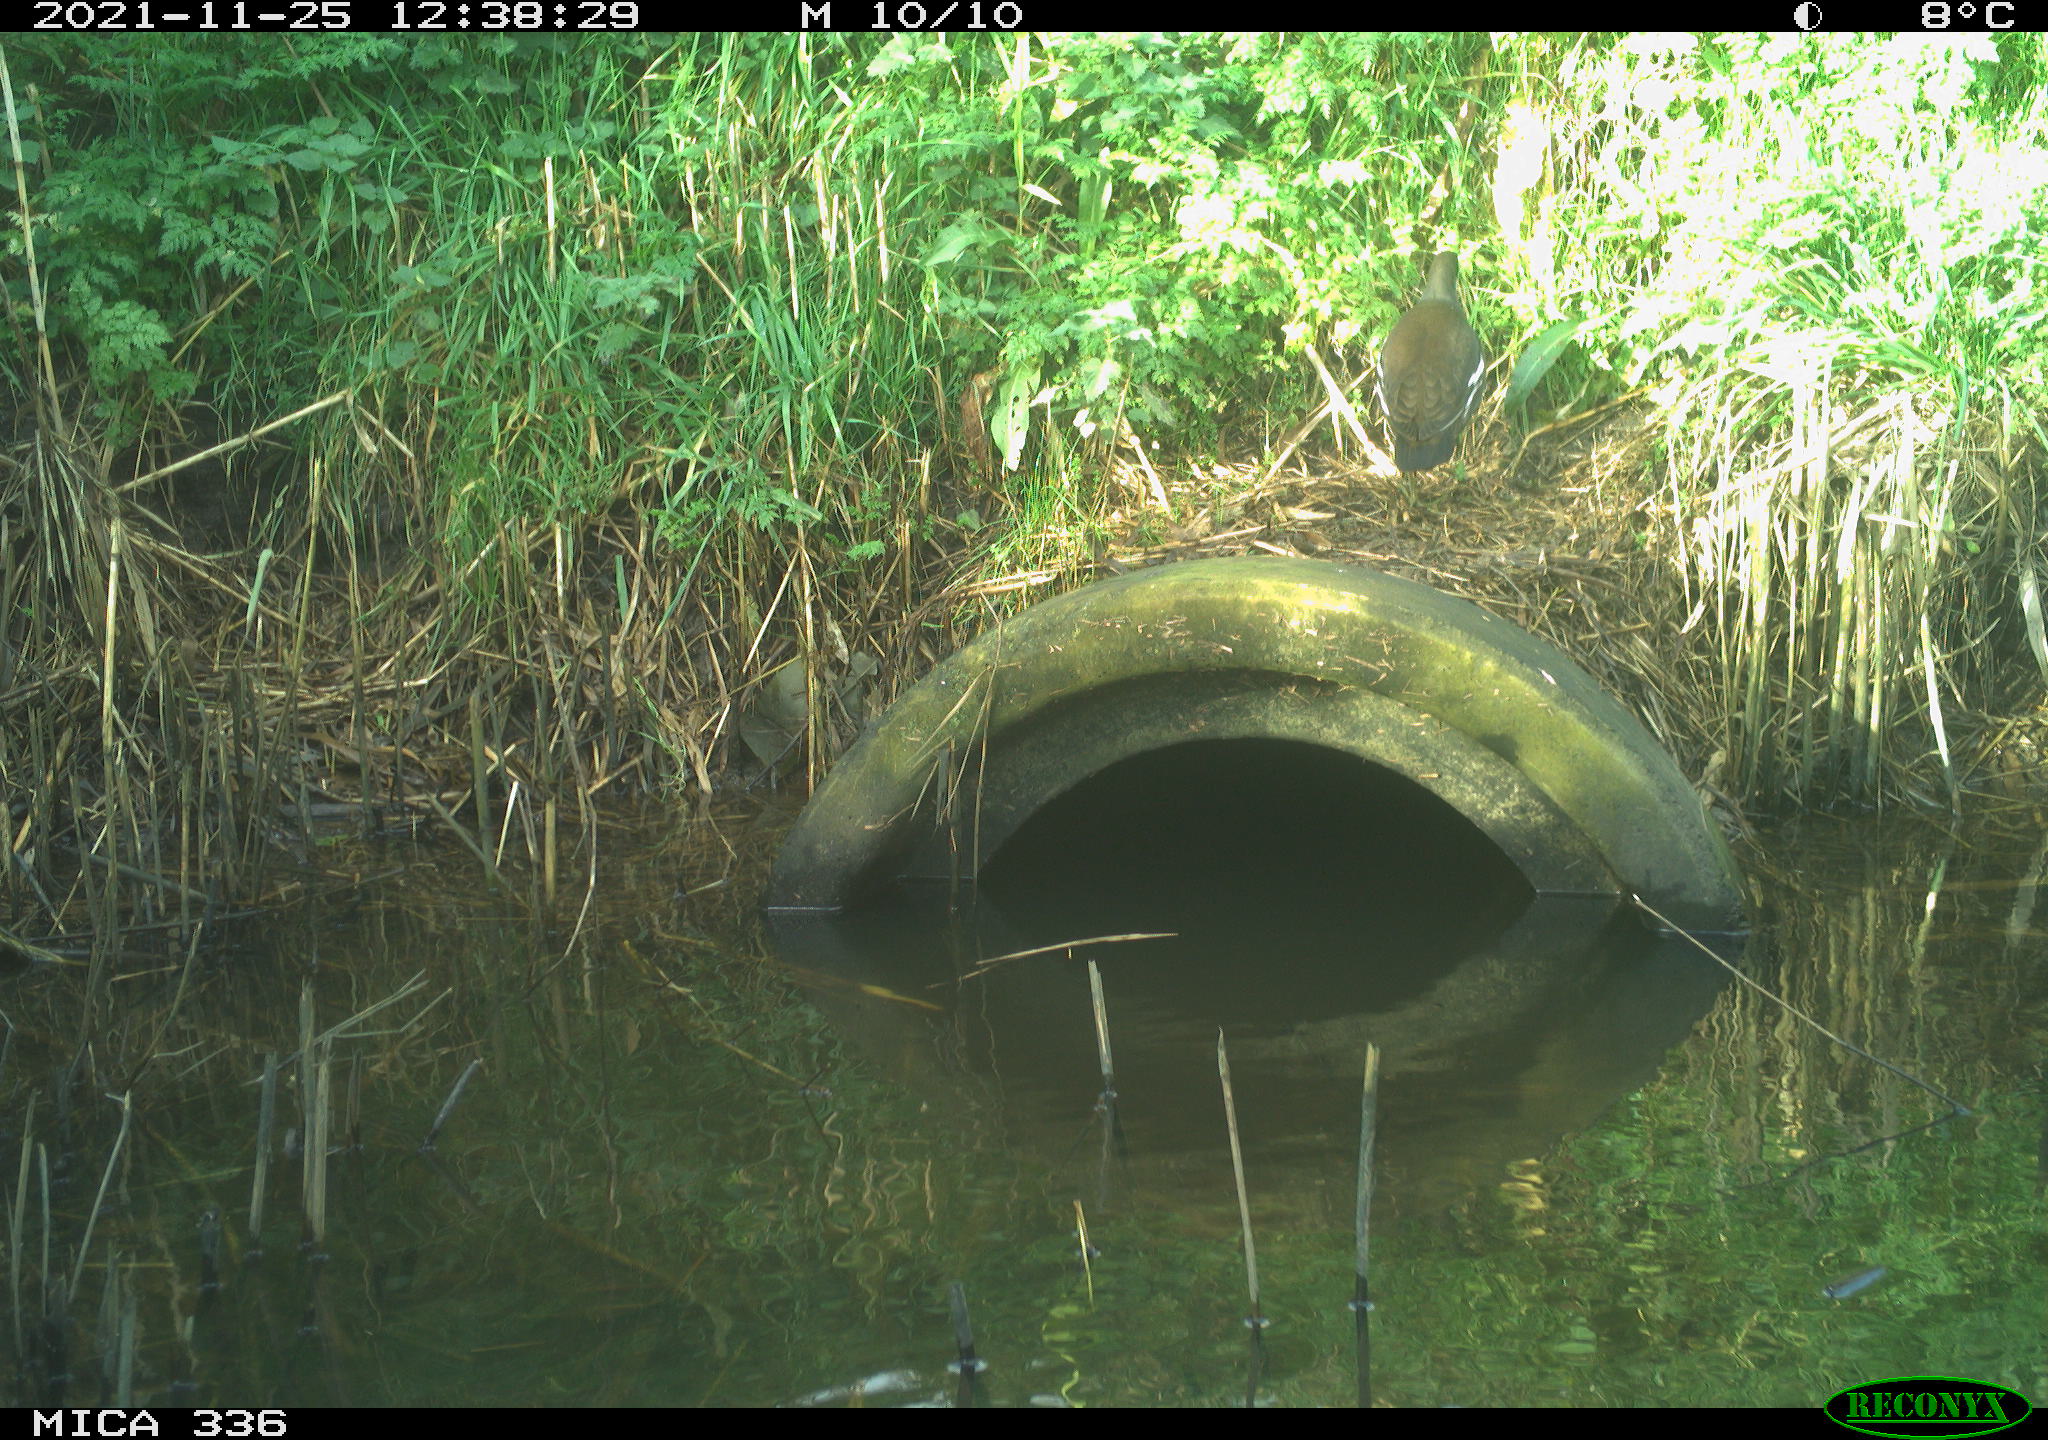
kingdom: Animalia
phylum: Chordata
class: Aves
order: Gruiformes
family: Rallidae
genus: Gallinula
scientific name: Gallinula chloropus
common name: Common moorhen
